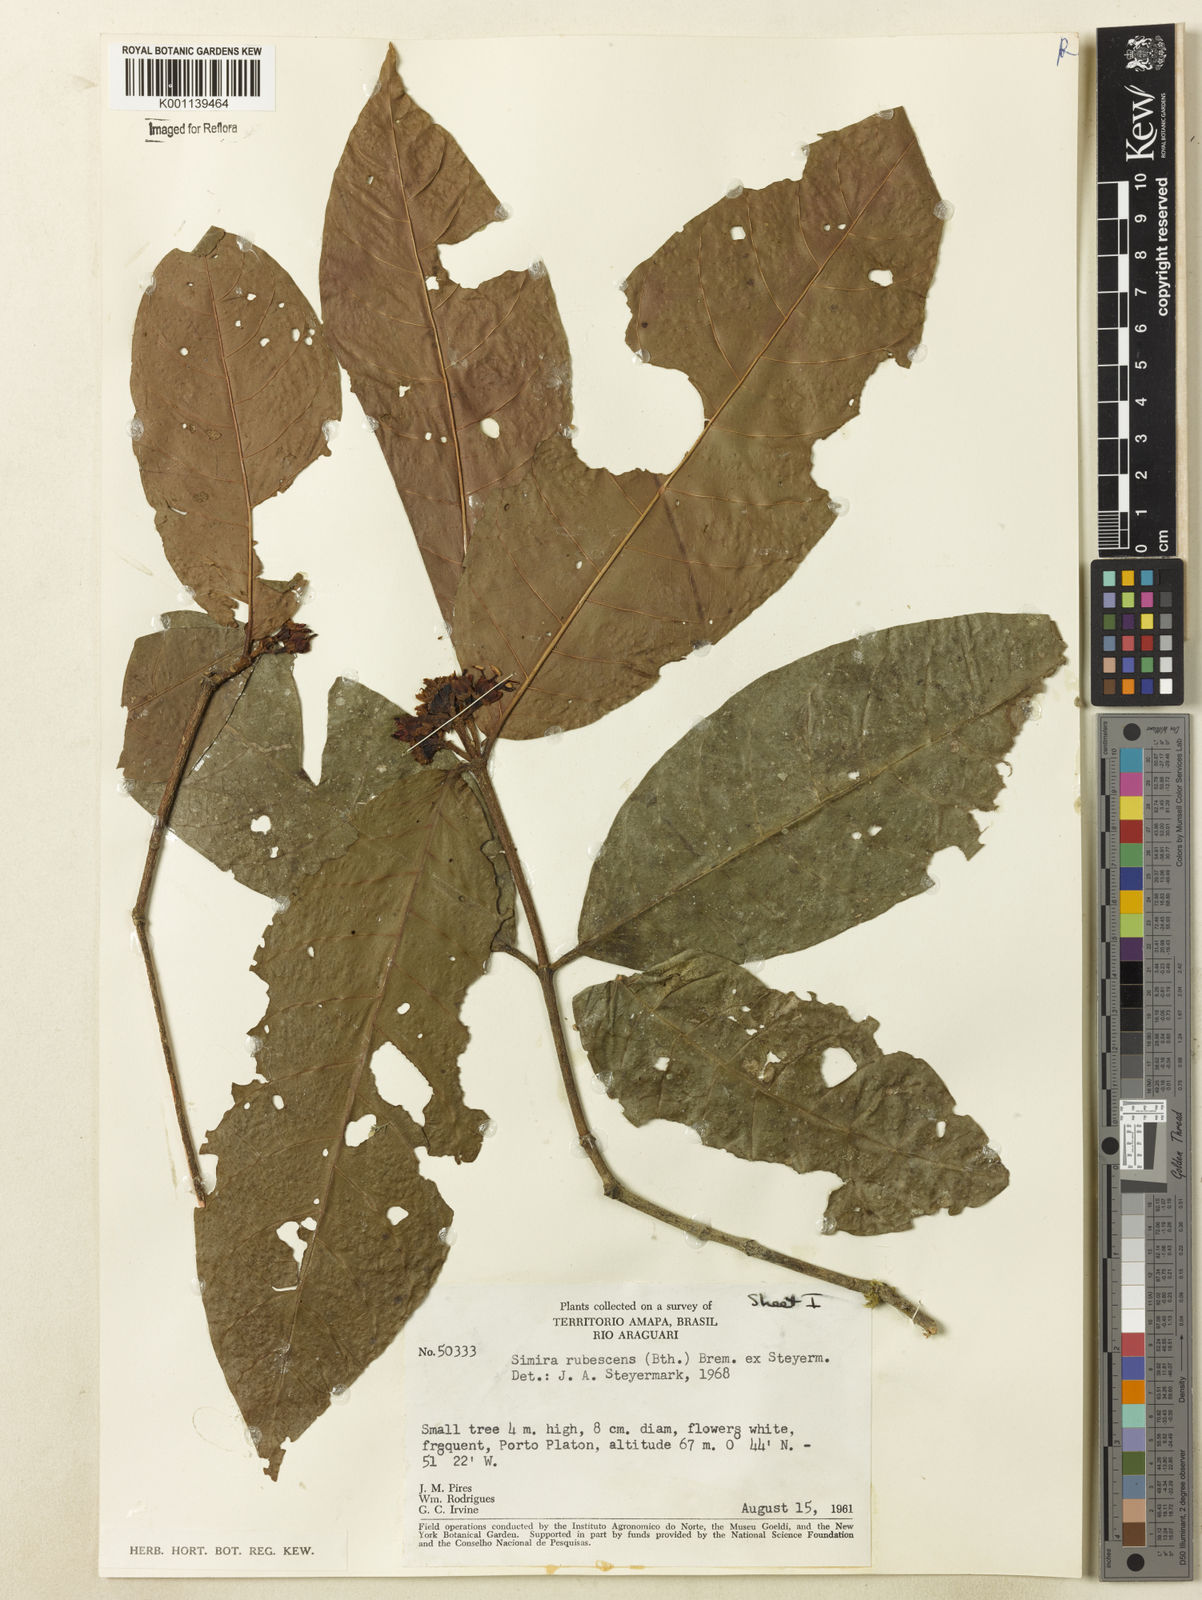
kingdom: Plantae
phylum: Tracheophyta
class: Magnoliopsida
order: Gentianales
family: Rubiaceae
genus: Simira
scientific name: Simira rubescens
